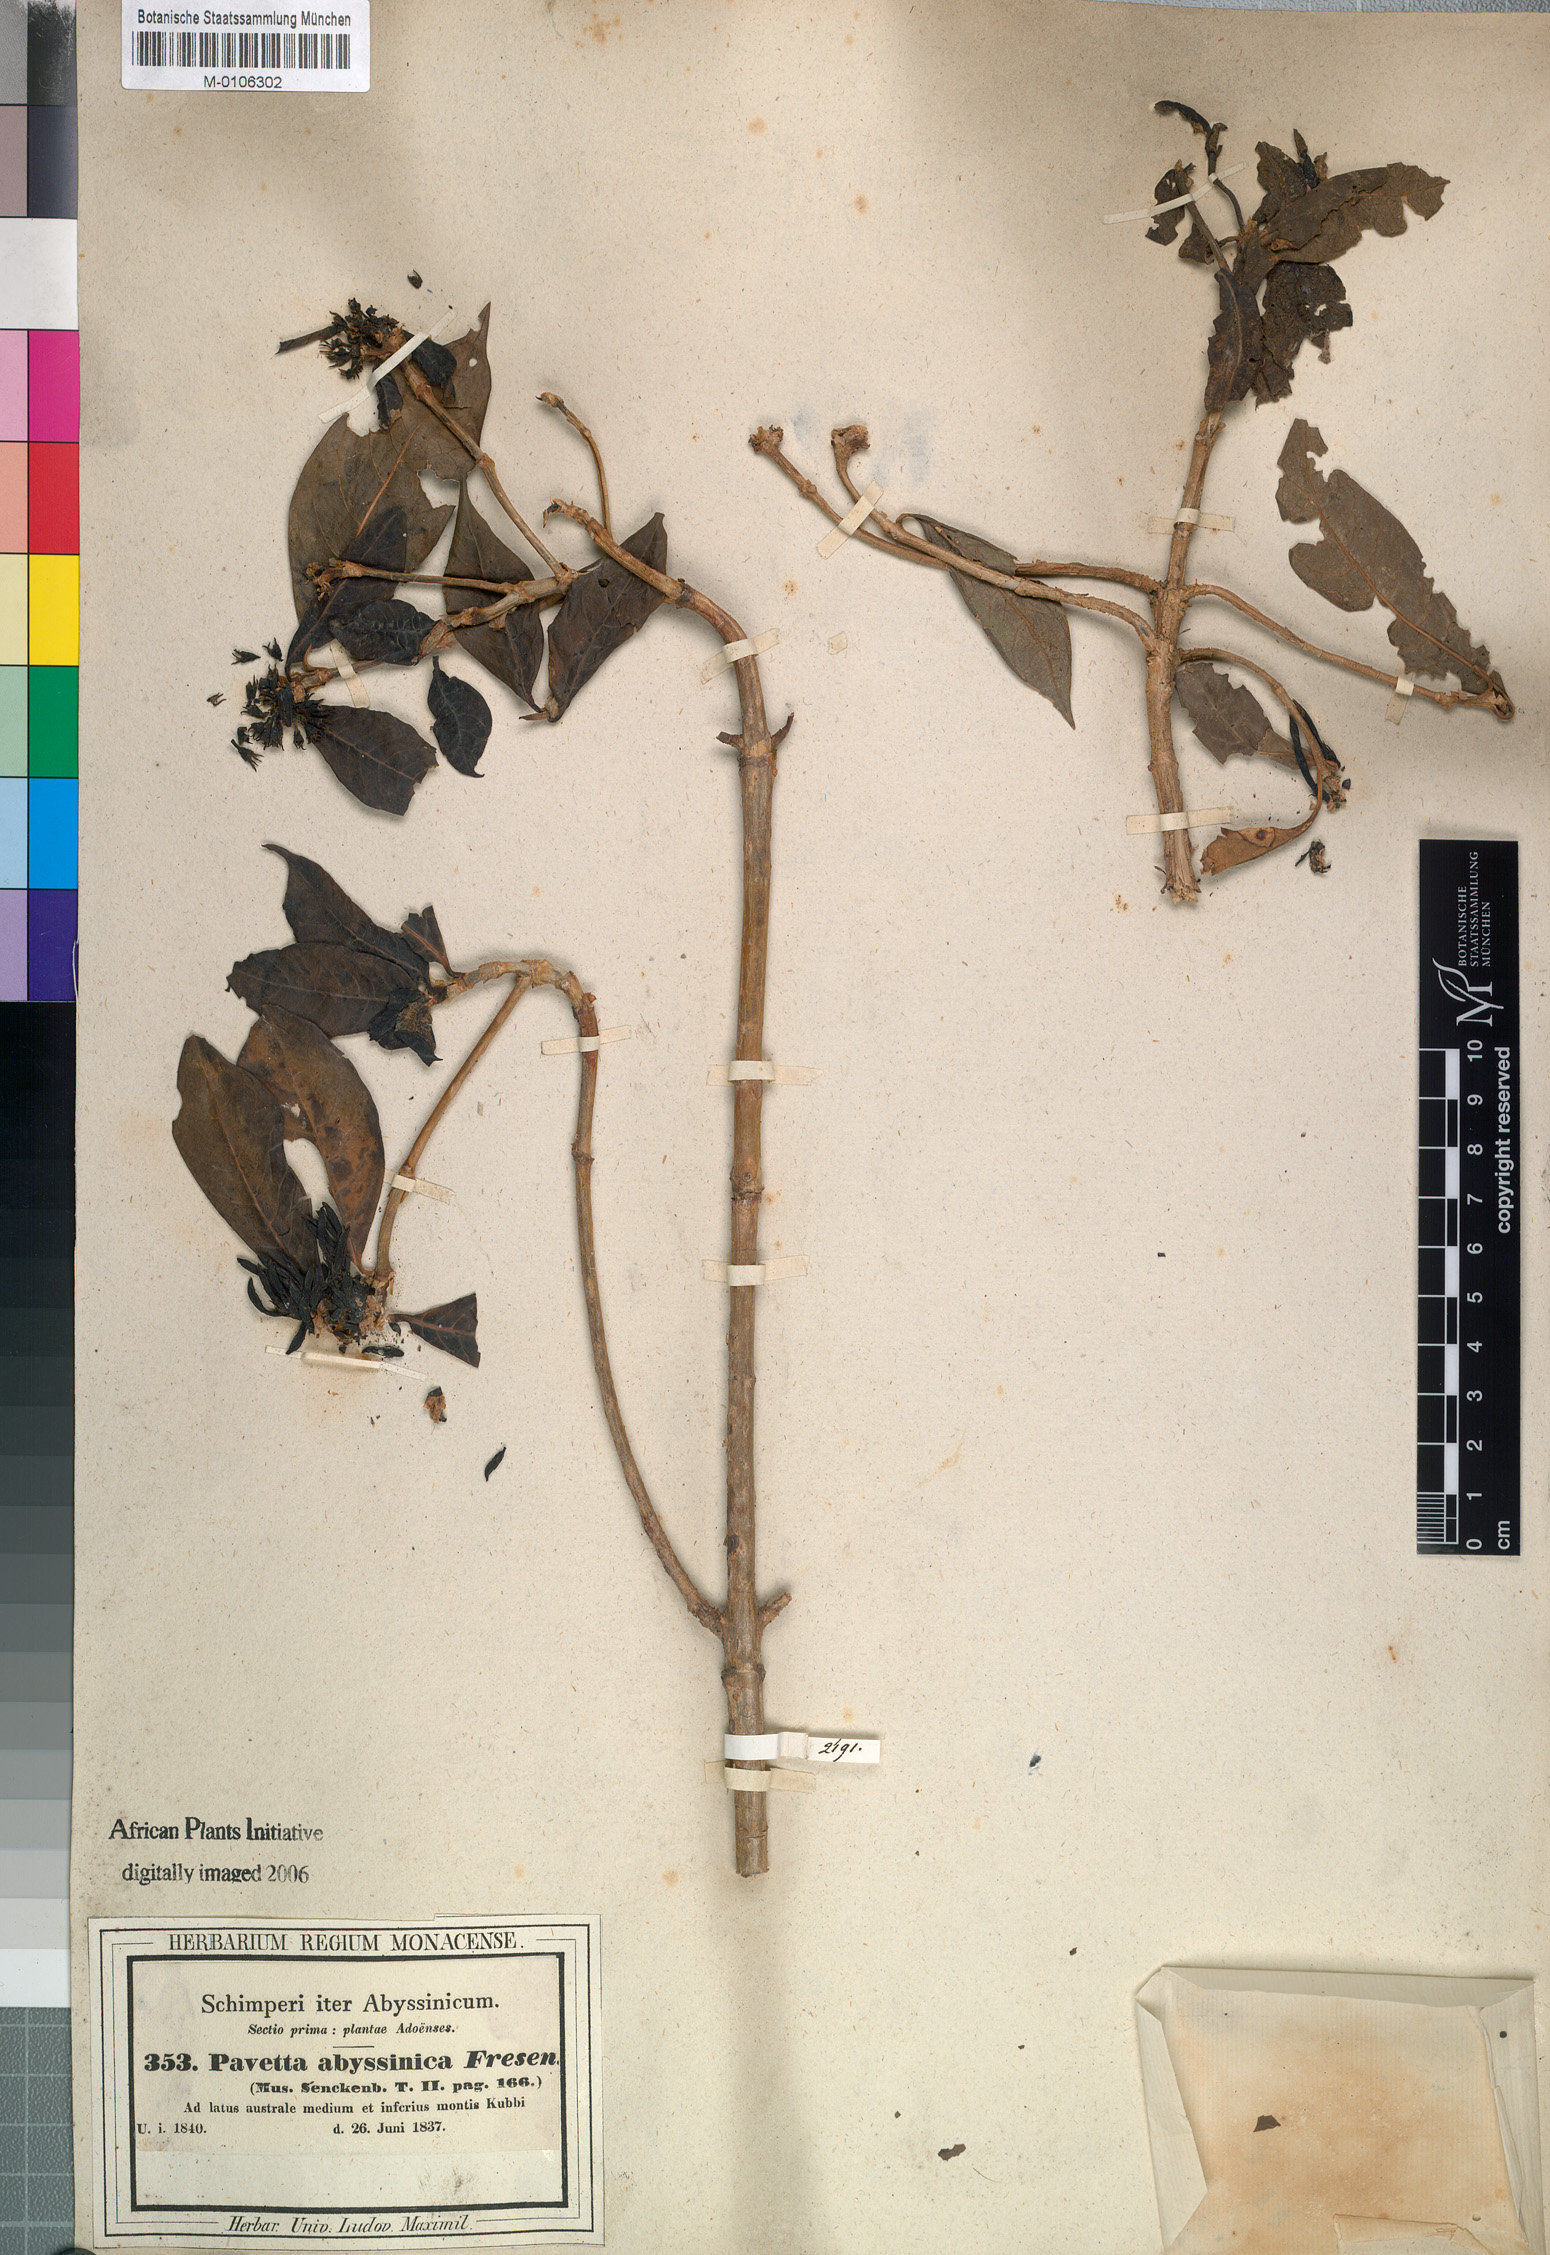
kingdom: Plantae
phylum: Tracheophyta
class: Magnoliopsida
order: Gentianales
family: Rubiaceae
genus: Pavetta
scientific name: Pavetta abyssinica
